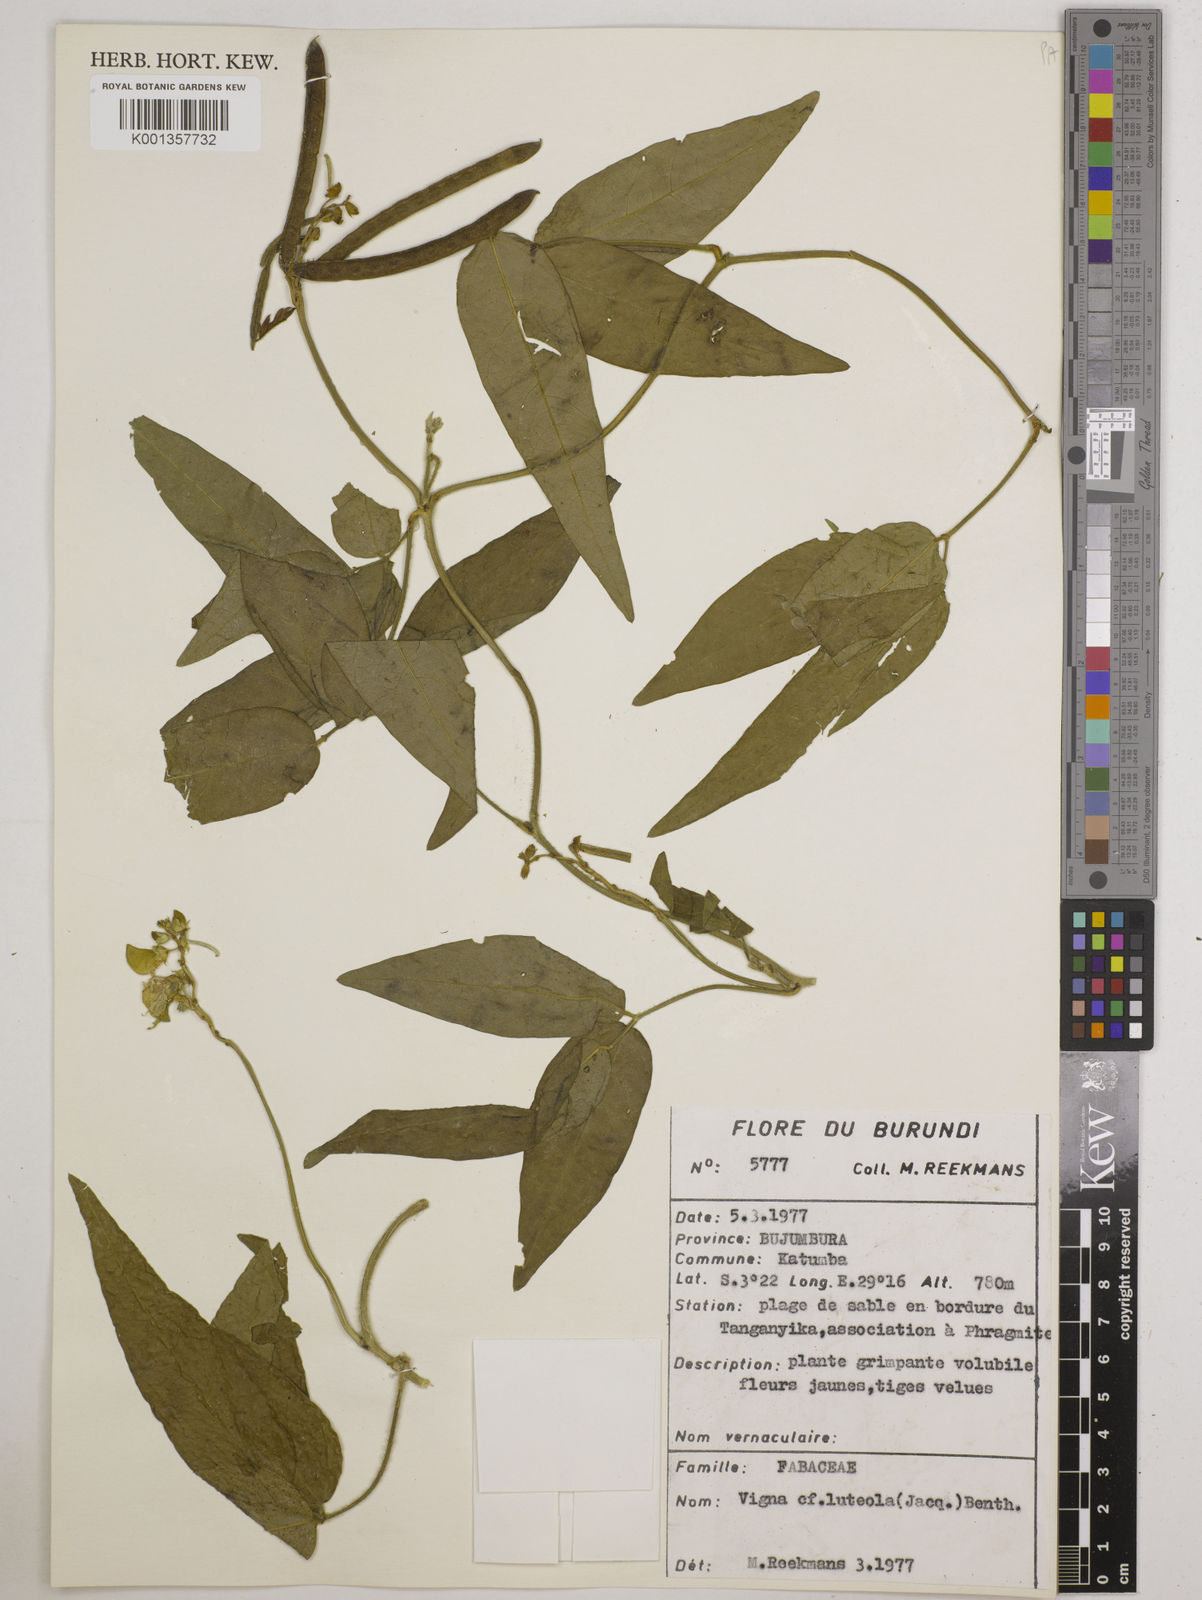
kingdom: Plantae
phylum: Tracheophyta
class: Magnoliopsida
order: Fabales
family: Fabaceae
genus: Vigna
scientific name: Vigna luteola
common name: Hairypod cowpea
